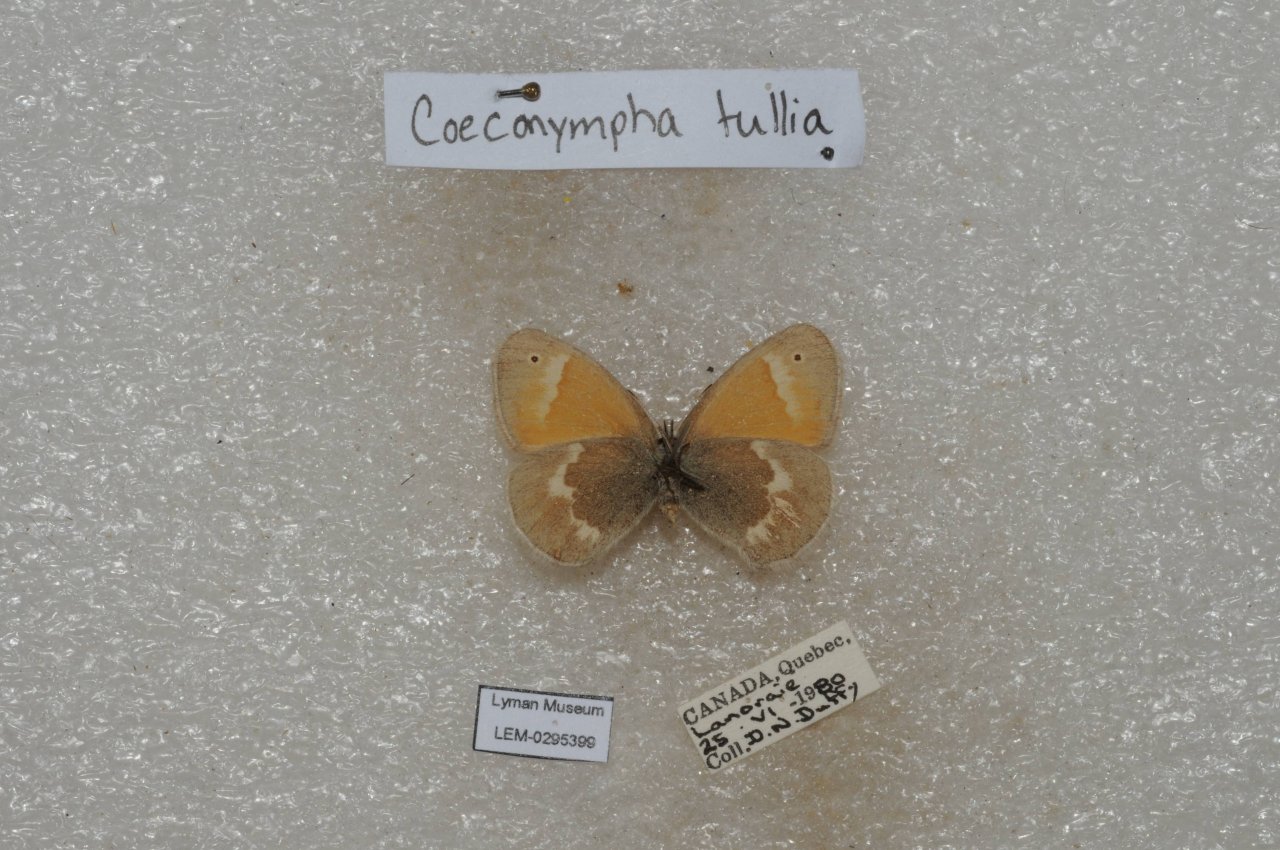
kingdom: Animalia
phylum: Arthropoda
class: Insecta
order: Lepidoptera
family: Nymphalidae
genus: Coenonympha
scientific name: Coenonympha tullia
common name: Large Heath
